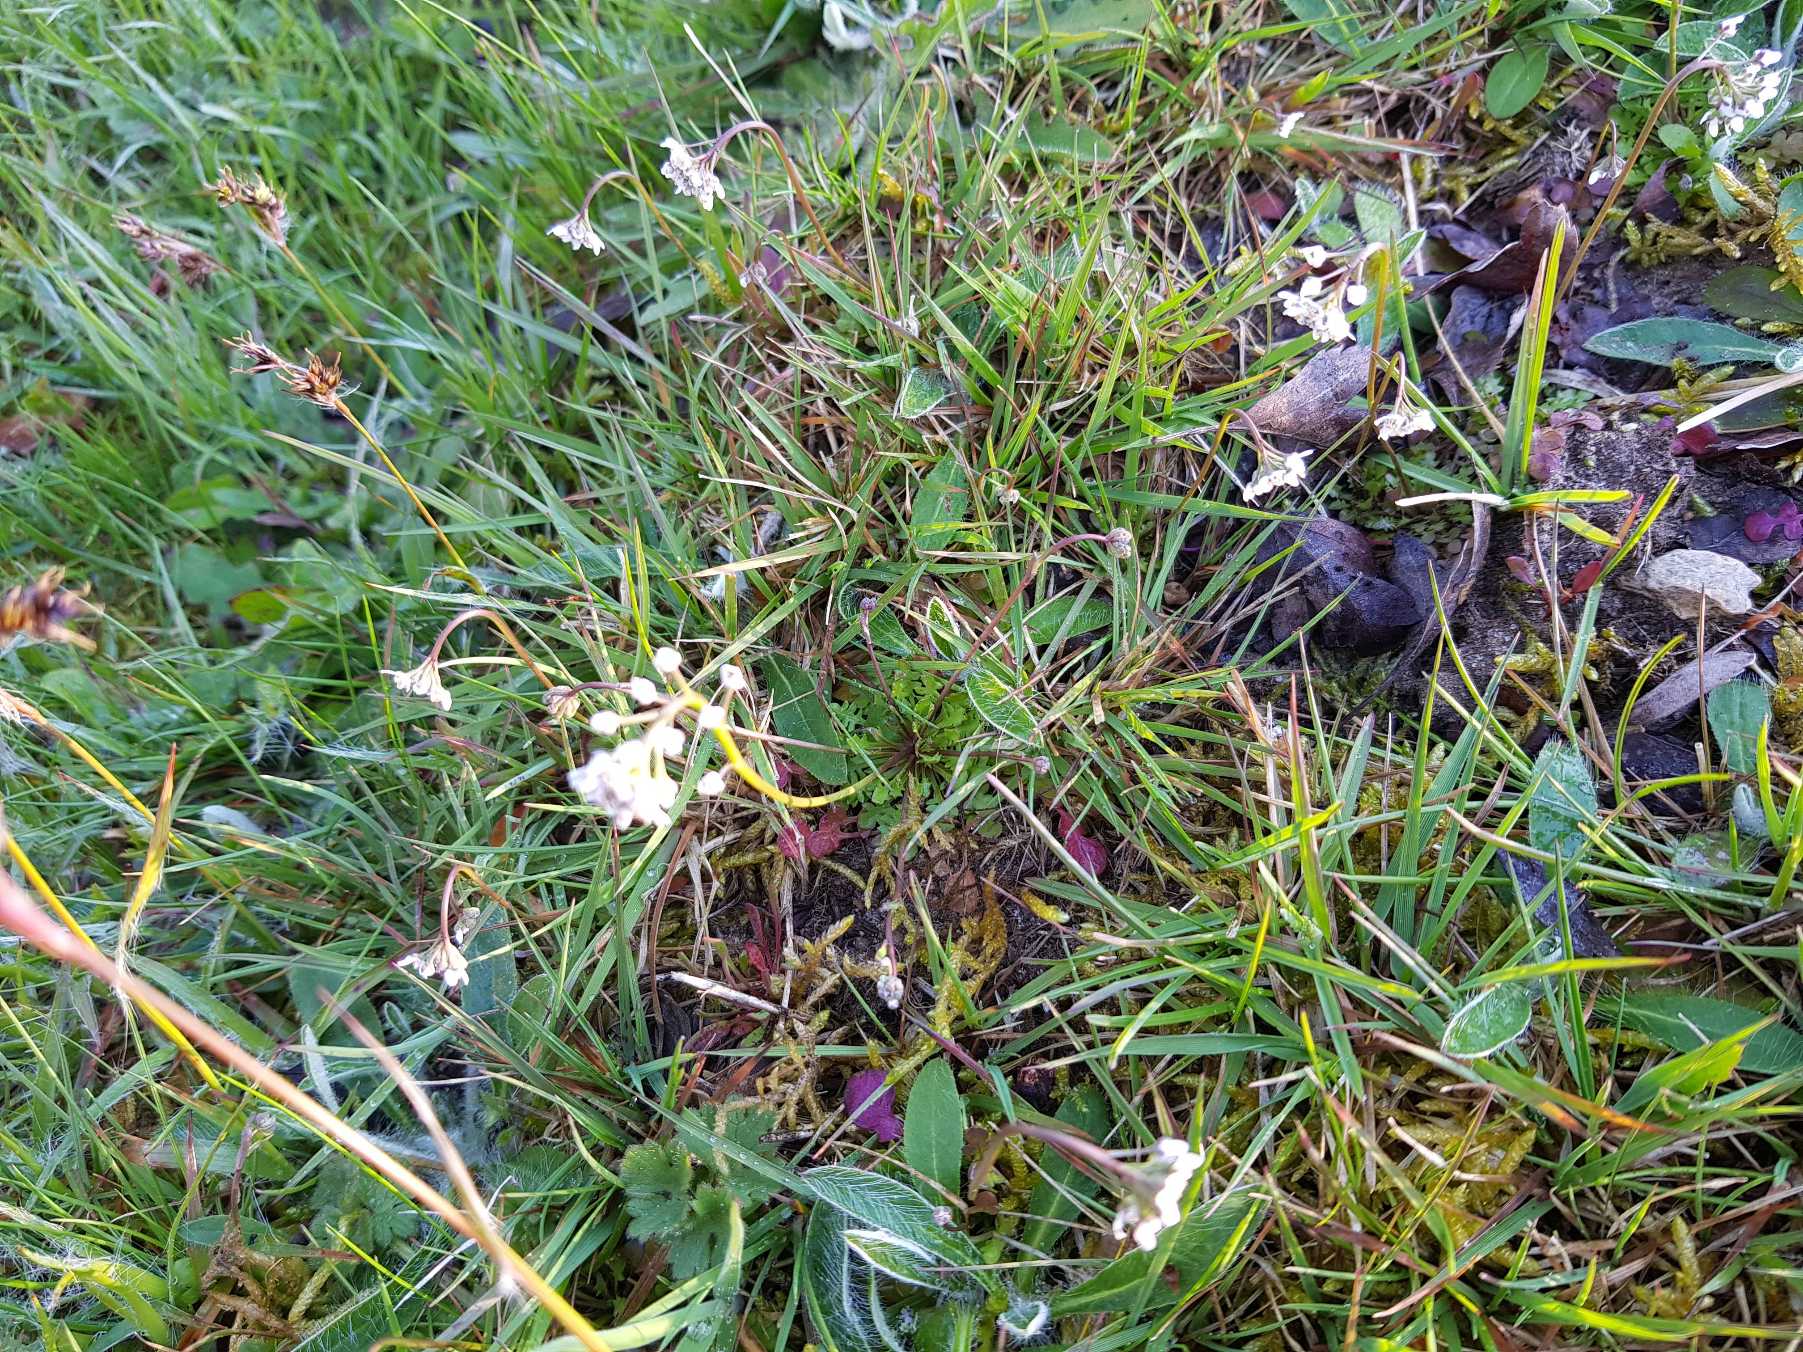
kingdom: Plantae
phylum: Tracheophyta
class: Magnoliopsida
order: Brassicales
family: Brassicaceae
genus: Teesdalia
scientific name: Teesdalia nudicaulis
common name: Flipkrave
